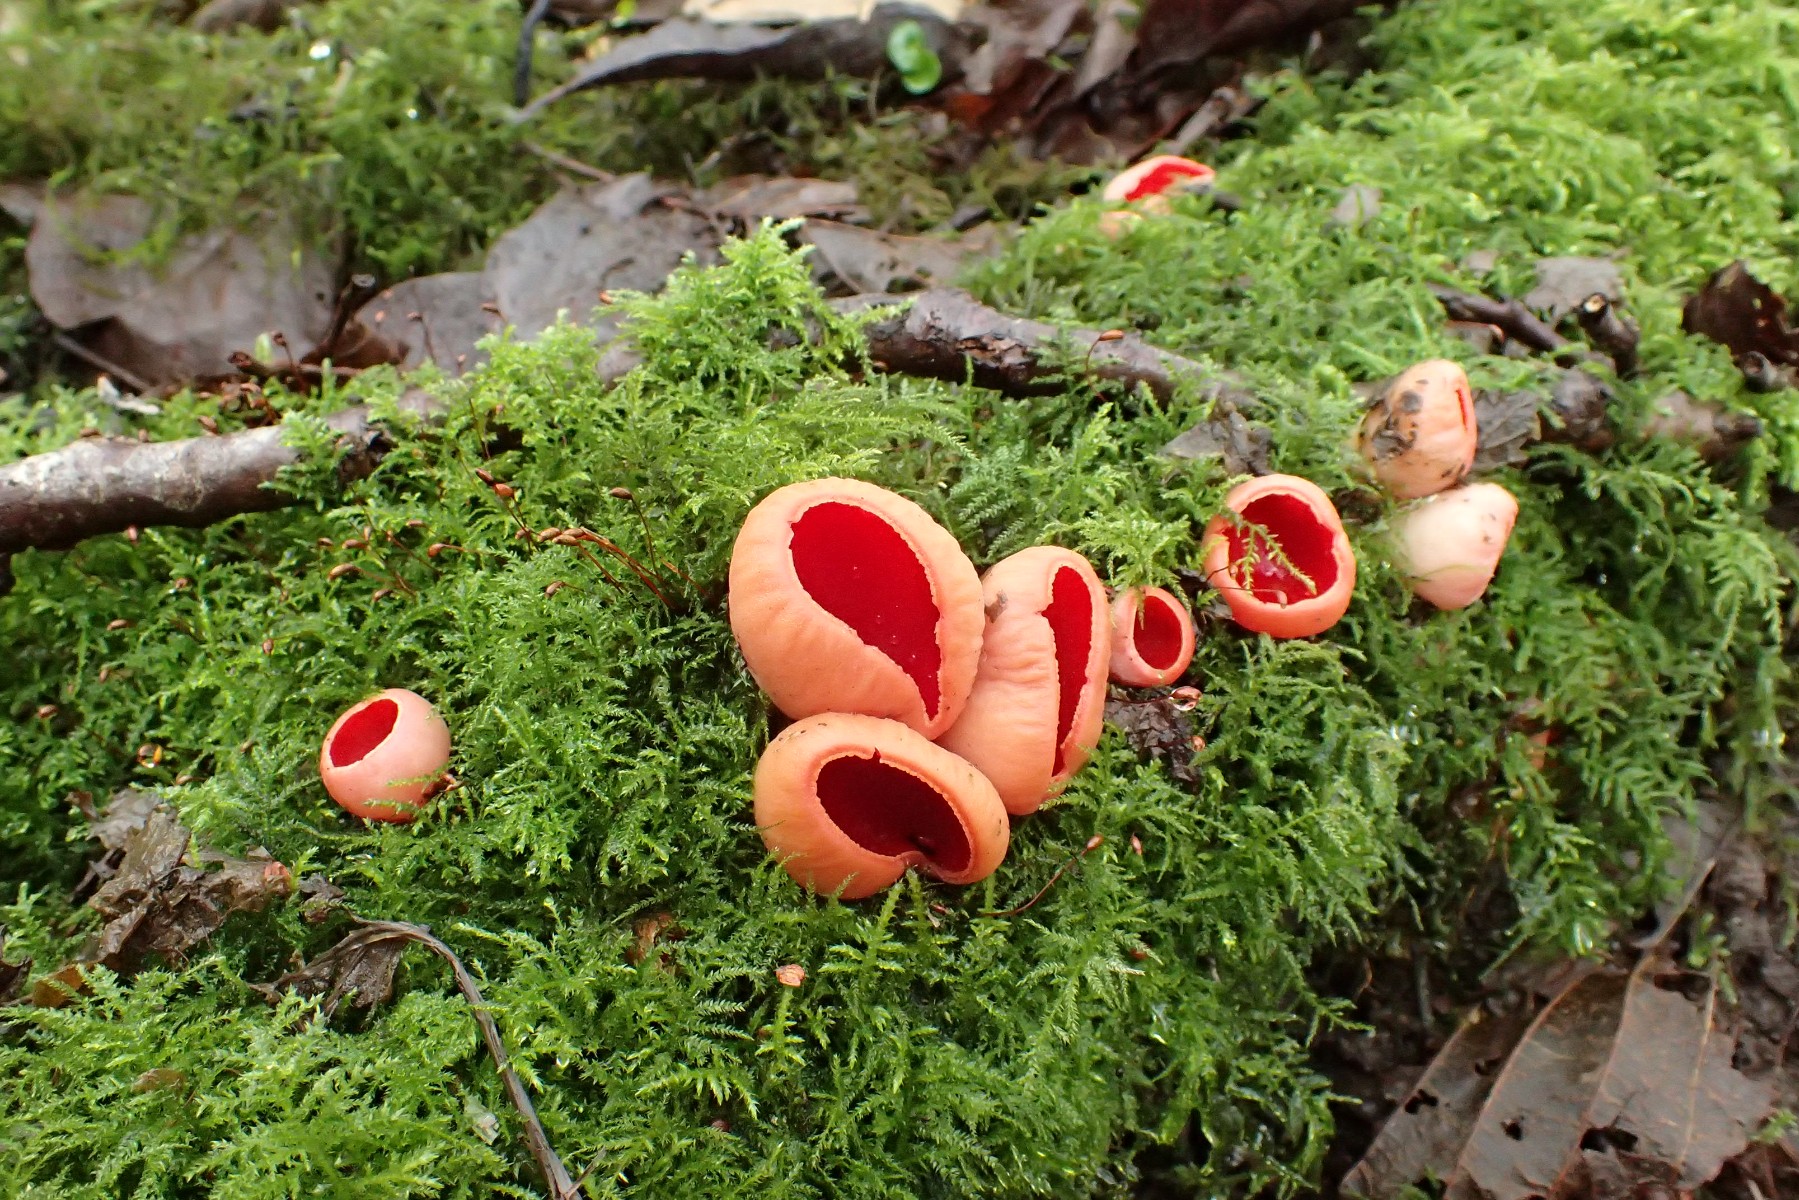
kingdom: Fungi
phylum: Ascomycota
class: Pezizomycetes
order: Pezizales
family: Sarcoscyphaceae
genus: Sarcoscypha
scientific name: Sarcoscypha austriaca
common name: krølhåret pragtbæger
